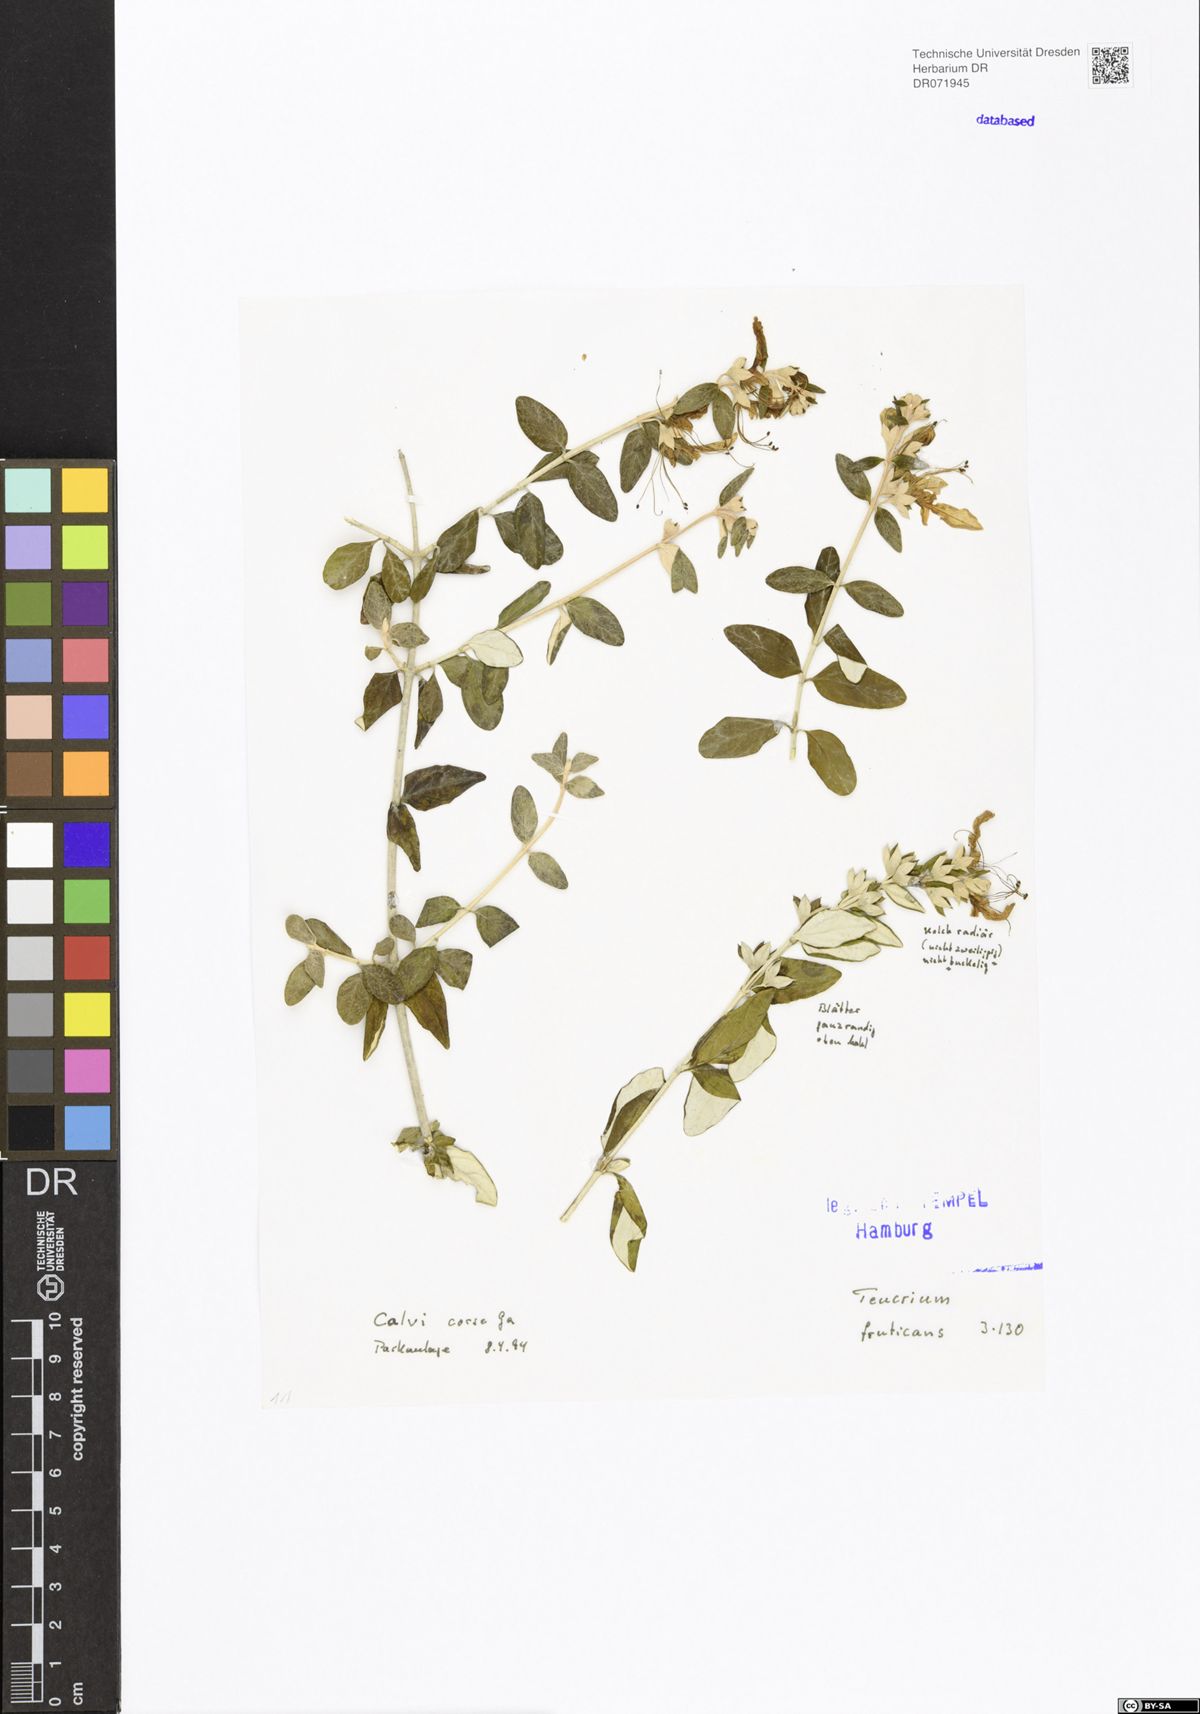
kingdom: Plantae
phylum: Tracheophyta
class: Magnoliopsida
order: Lamiales
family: Lamiaceae
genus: Teucrium
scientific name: Teucrium fruticans
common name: Shrubby germander
